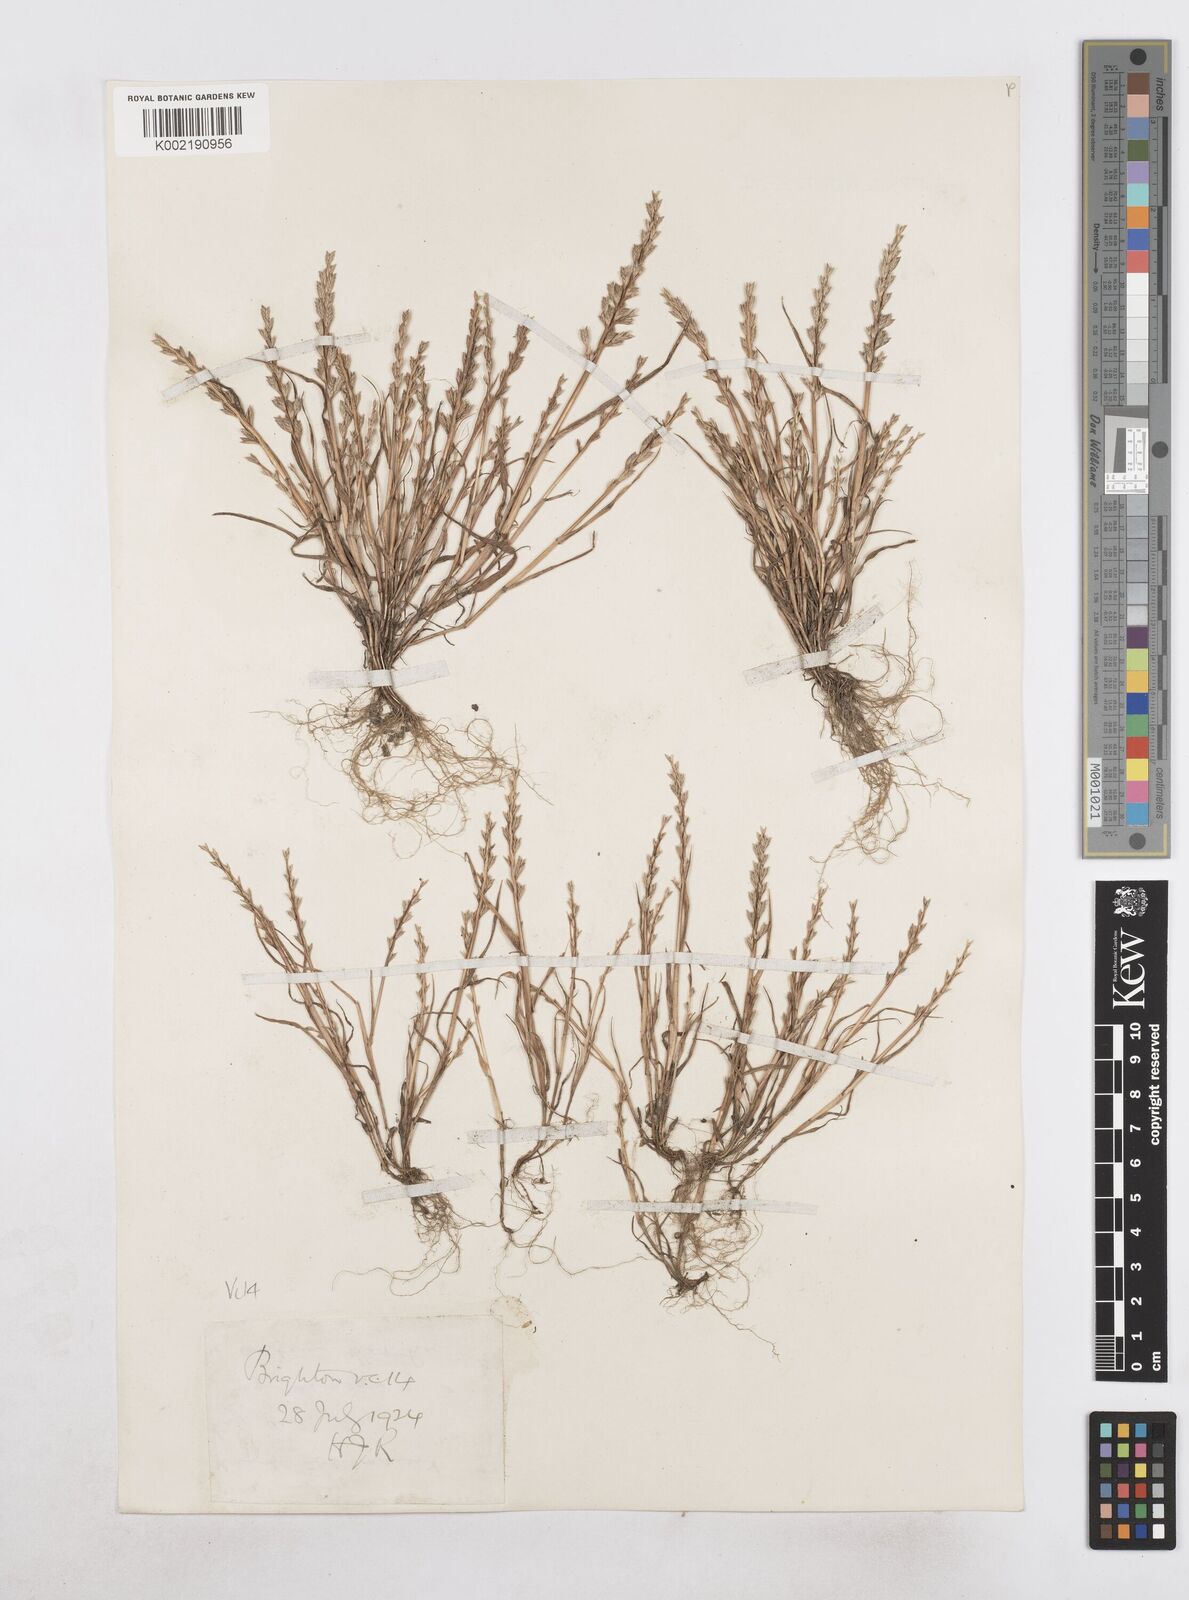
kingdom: Plantae
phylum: Tracheophyta
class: Liliopsida
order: Poales
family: Poaceae
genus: Catapodium
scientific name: Catapodium marinum
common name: Sea fern-grass
